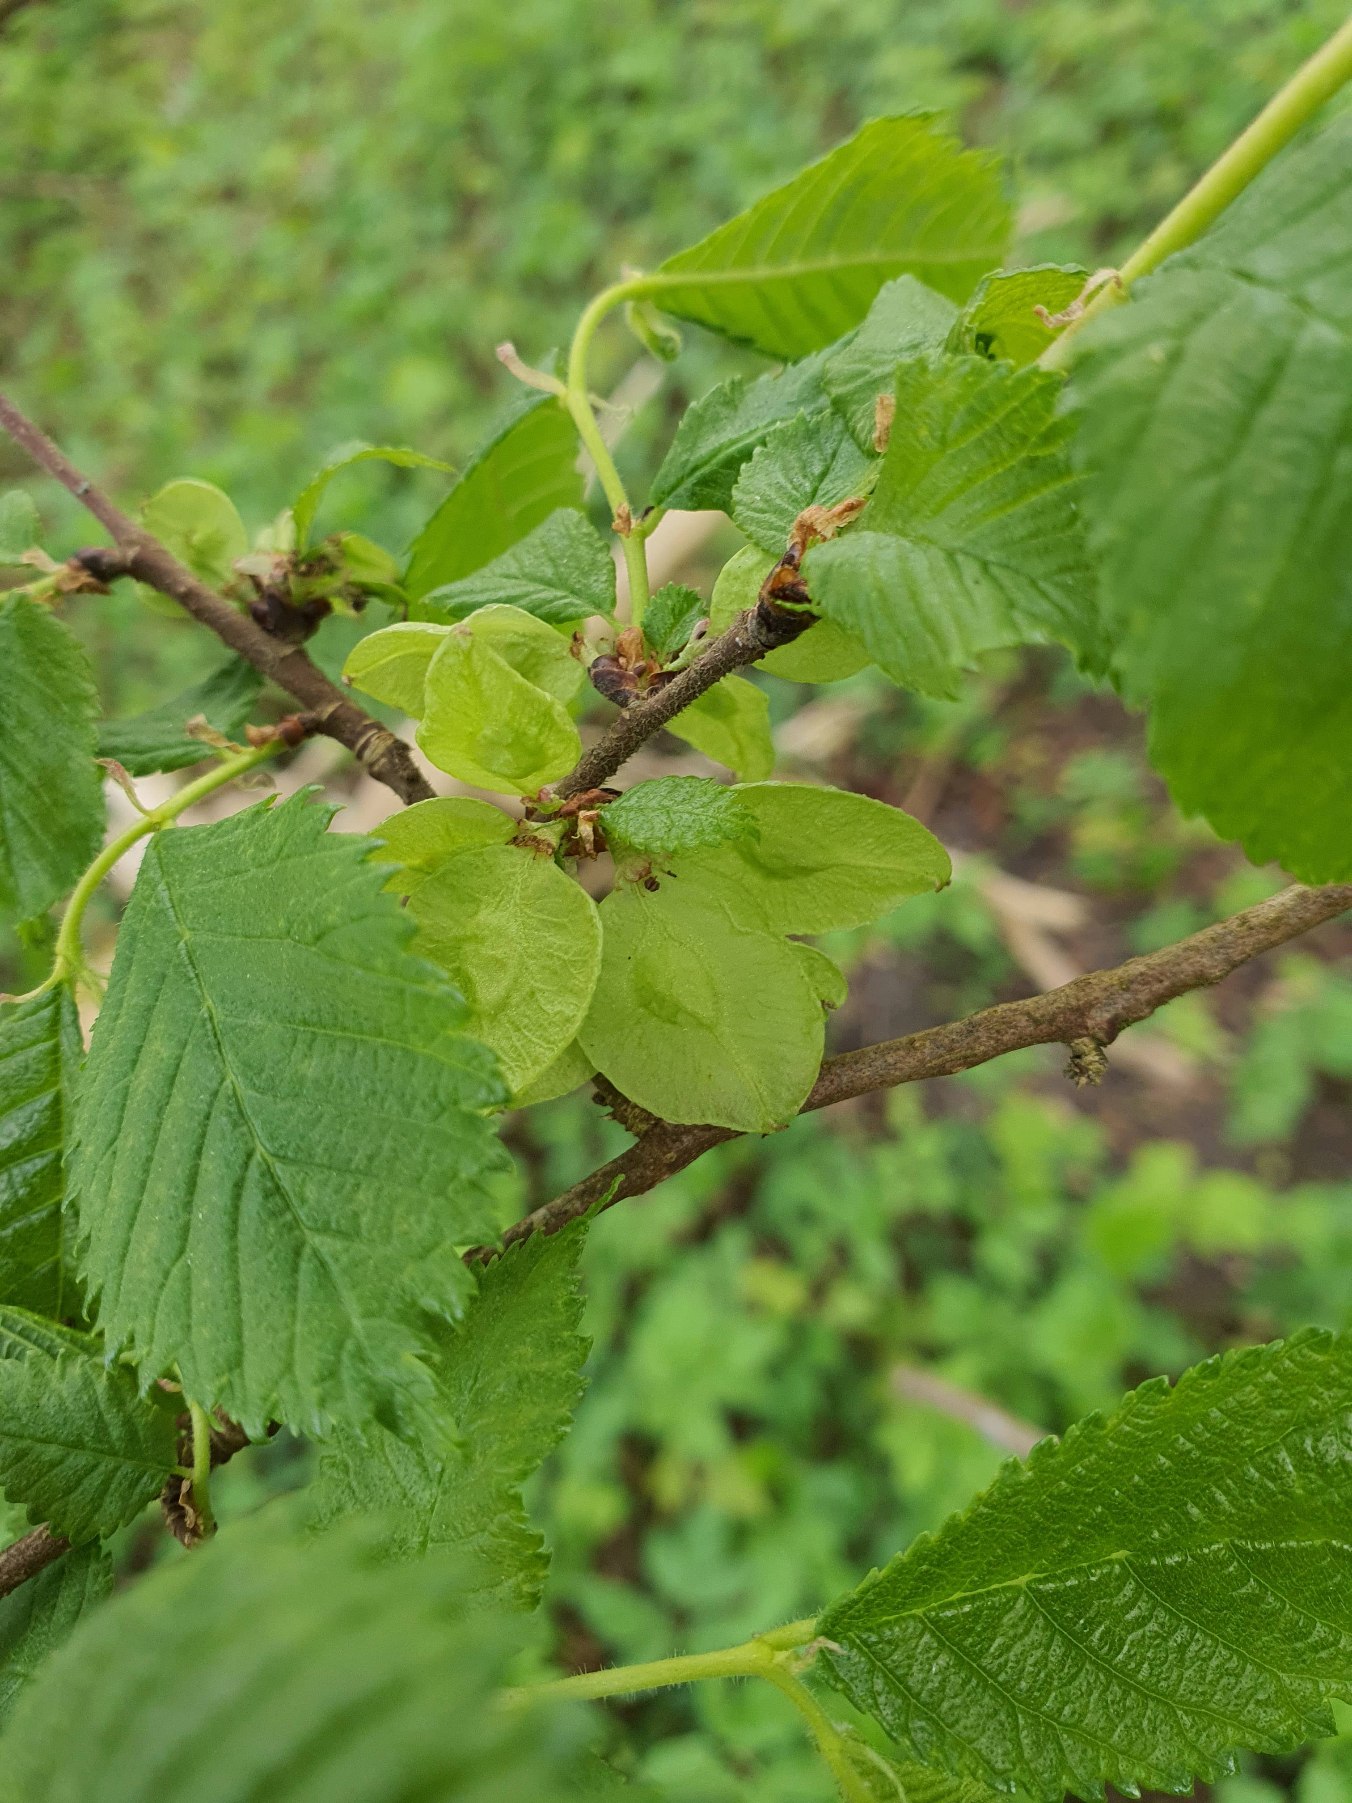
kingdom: Plantae
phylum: Tracheophyta
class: Magnoliopsida
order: Rosales
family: Ulmaceae
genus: Ulmus
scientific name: Ulmus glabra
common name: Skov-elm/storbladet elm
